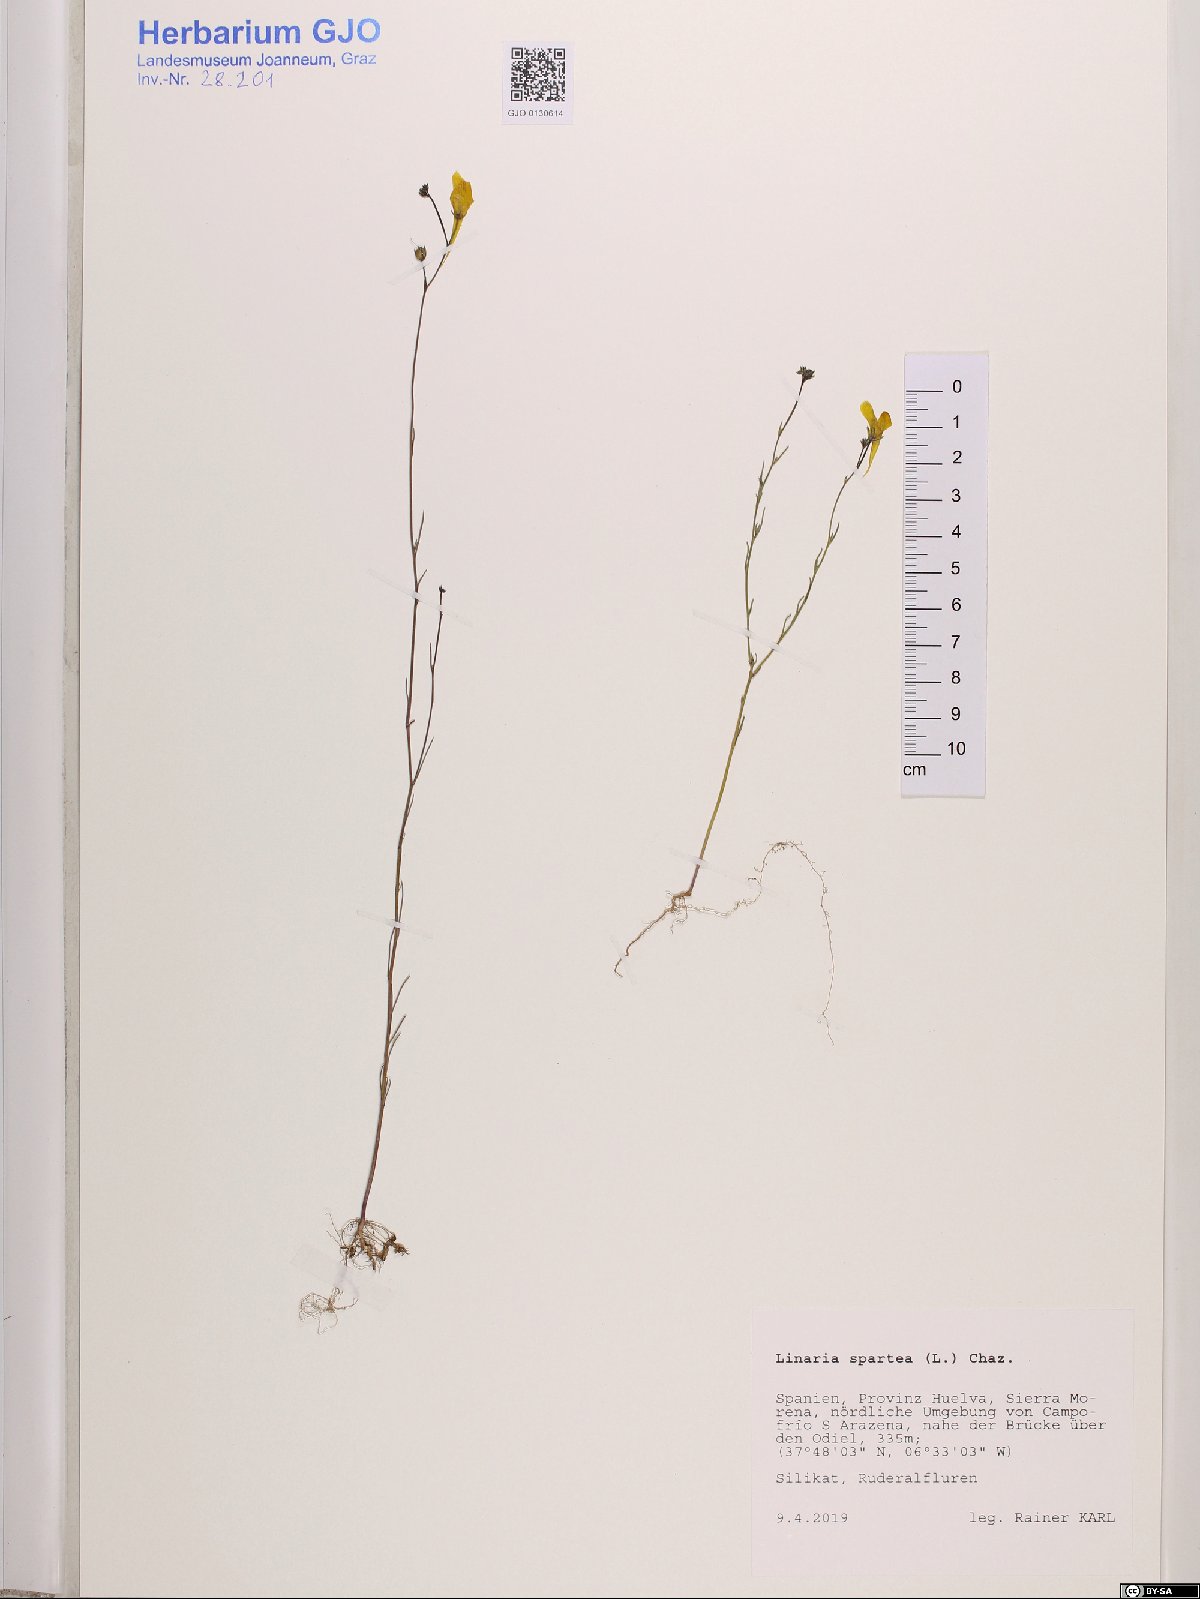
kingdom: Plantae
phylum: Tracheophyta
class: Magnoliopsida
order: Lamiales
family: Plantaginaceae
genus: Linaria
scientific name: Linaria spartea
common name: Ballast toadflax
